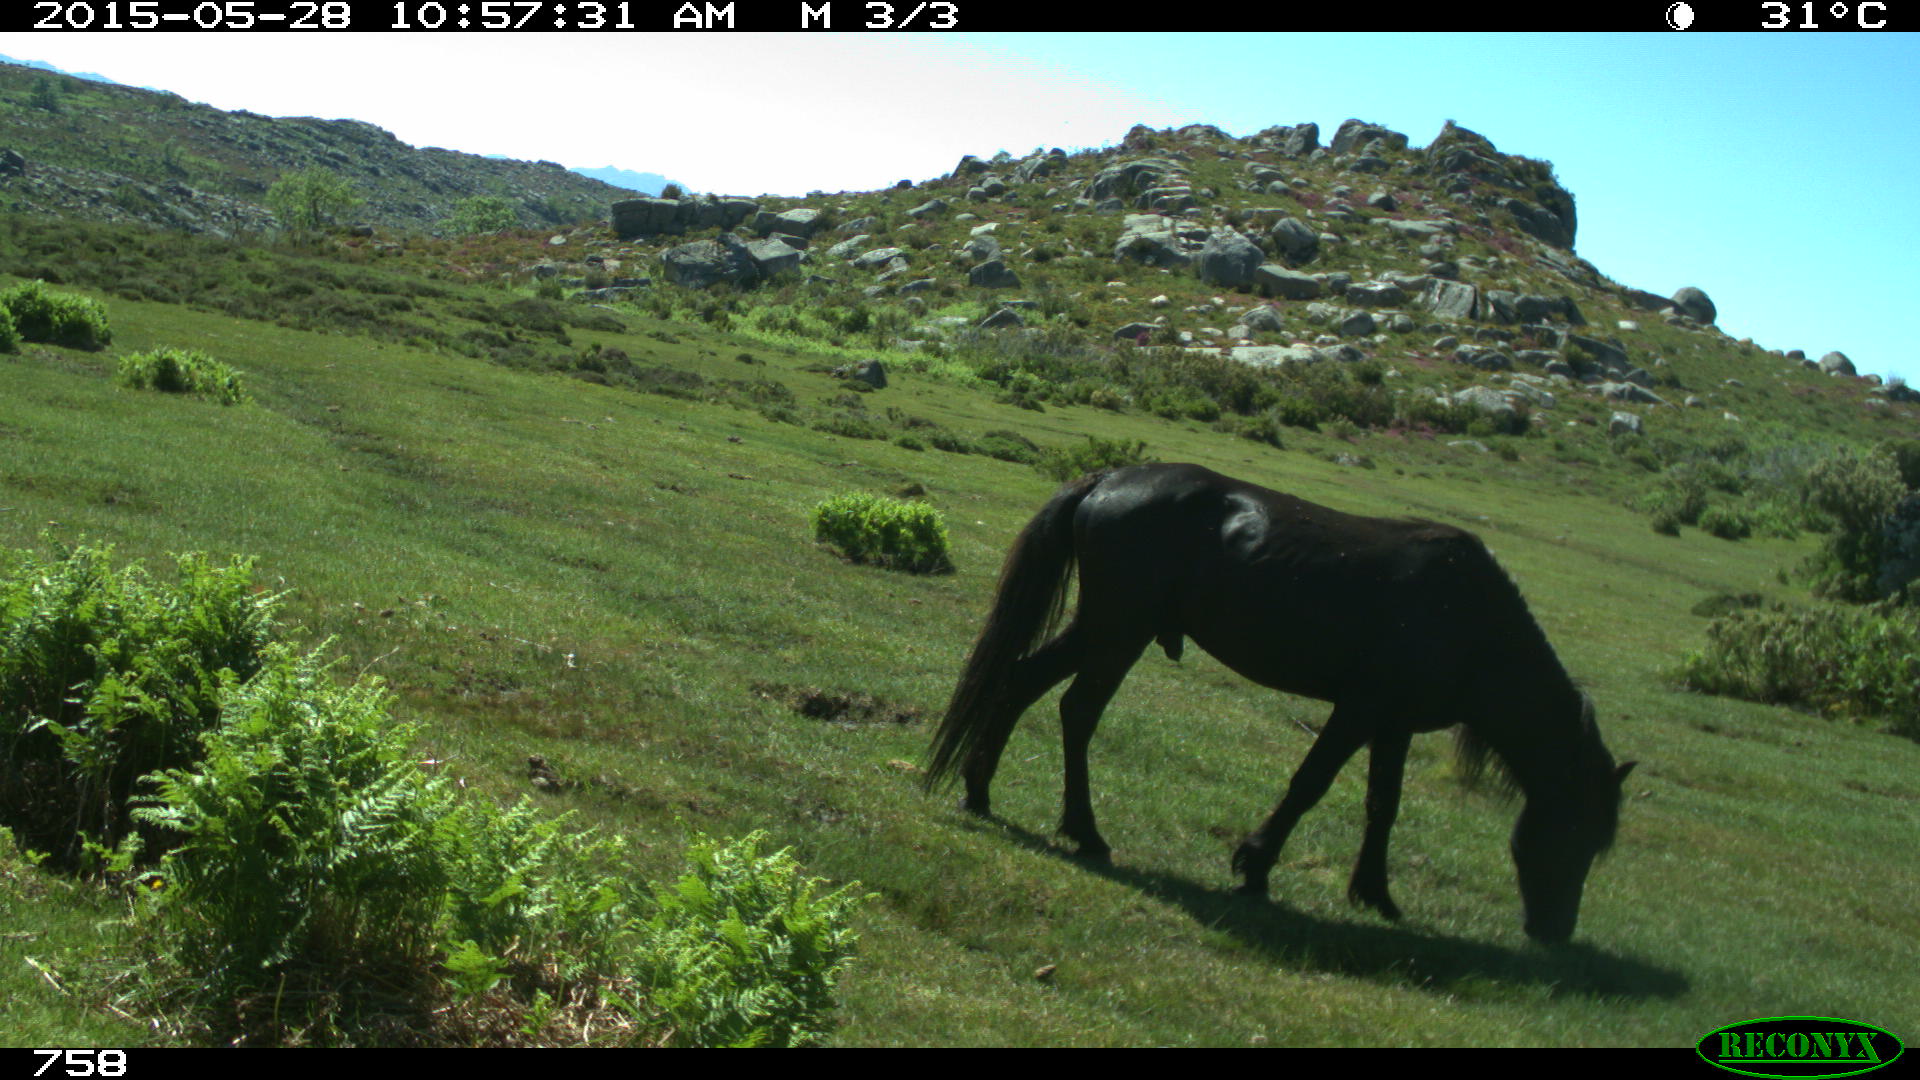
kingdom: Animalia
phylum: Chordata
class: Mammalia
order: Perissodactyla
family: Equidae
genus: Equus
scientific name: Equus caballus
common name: Horse
